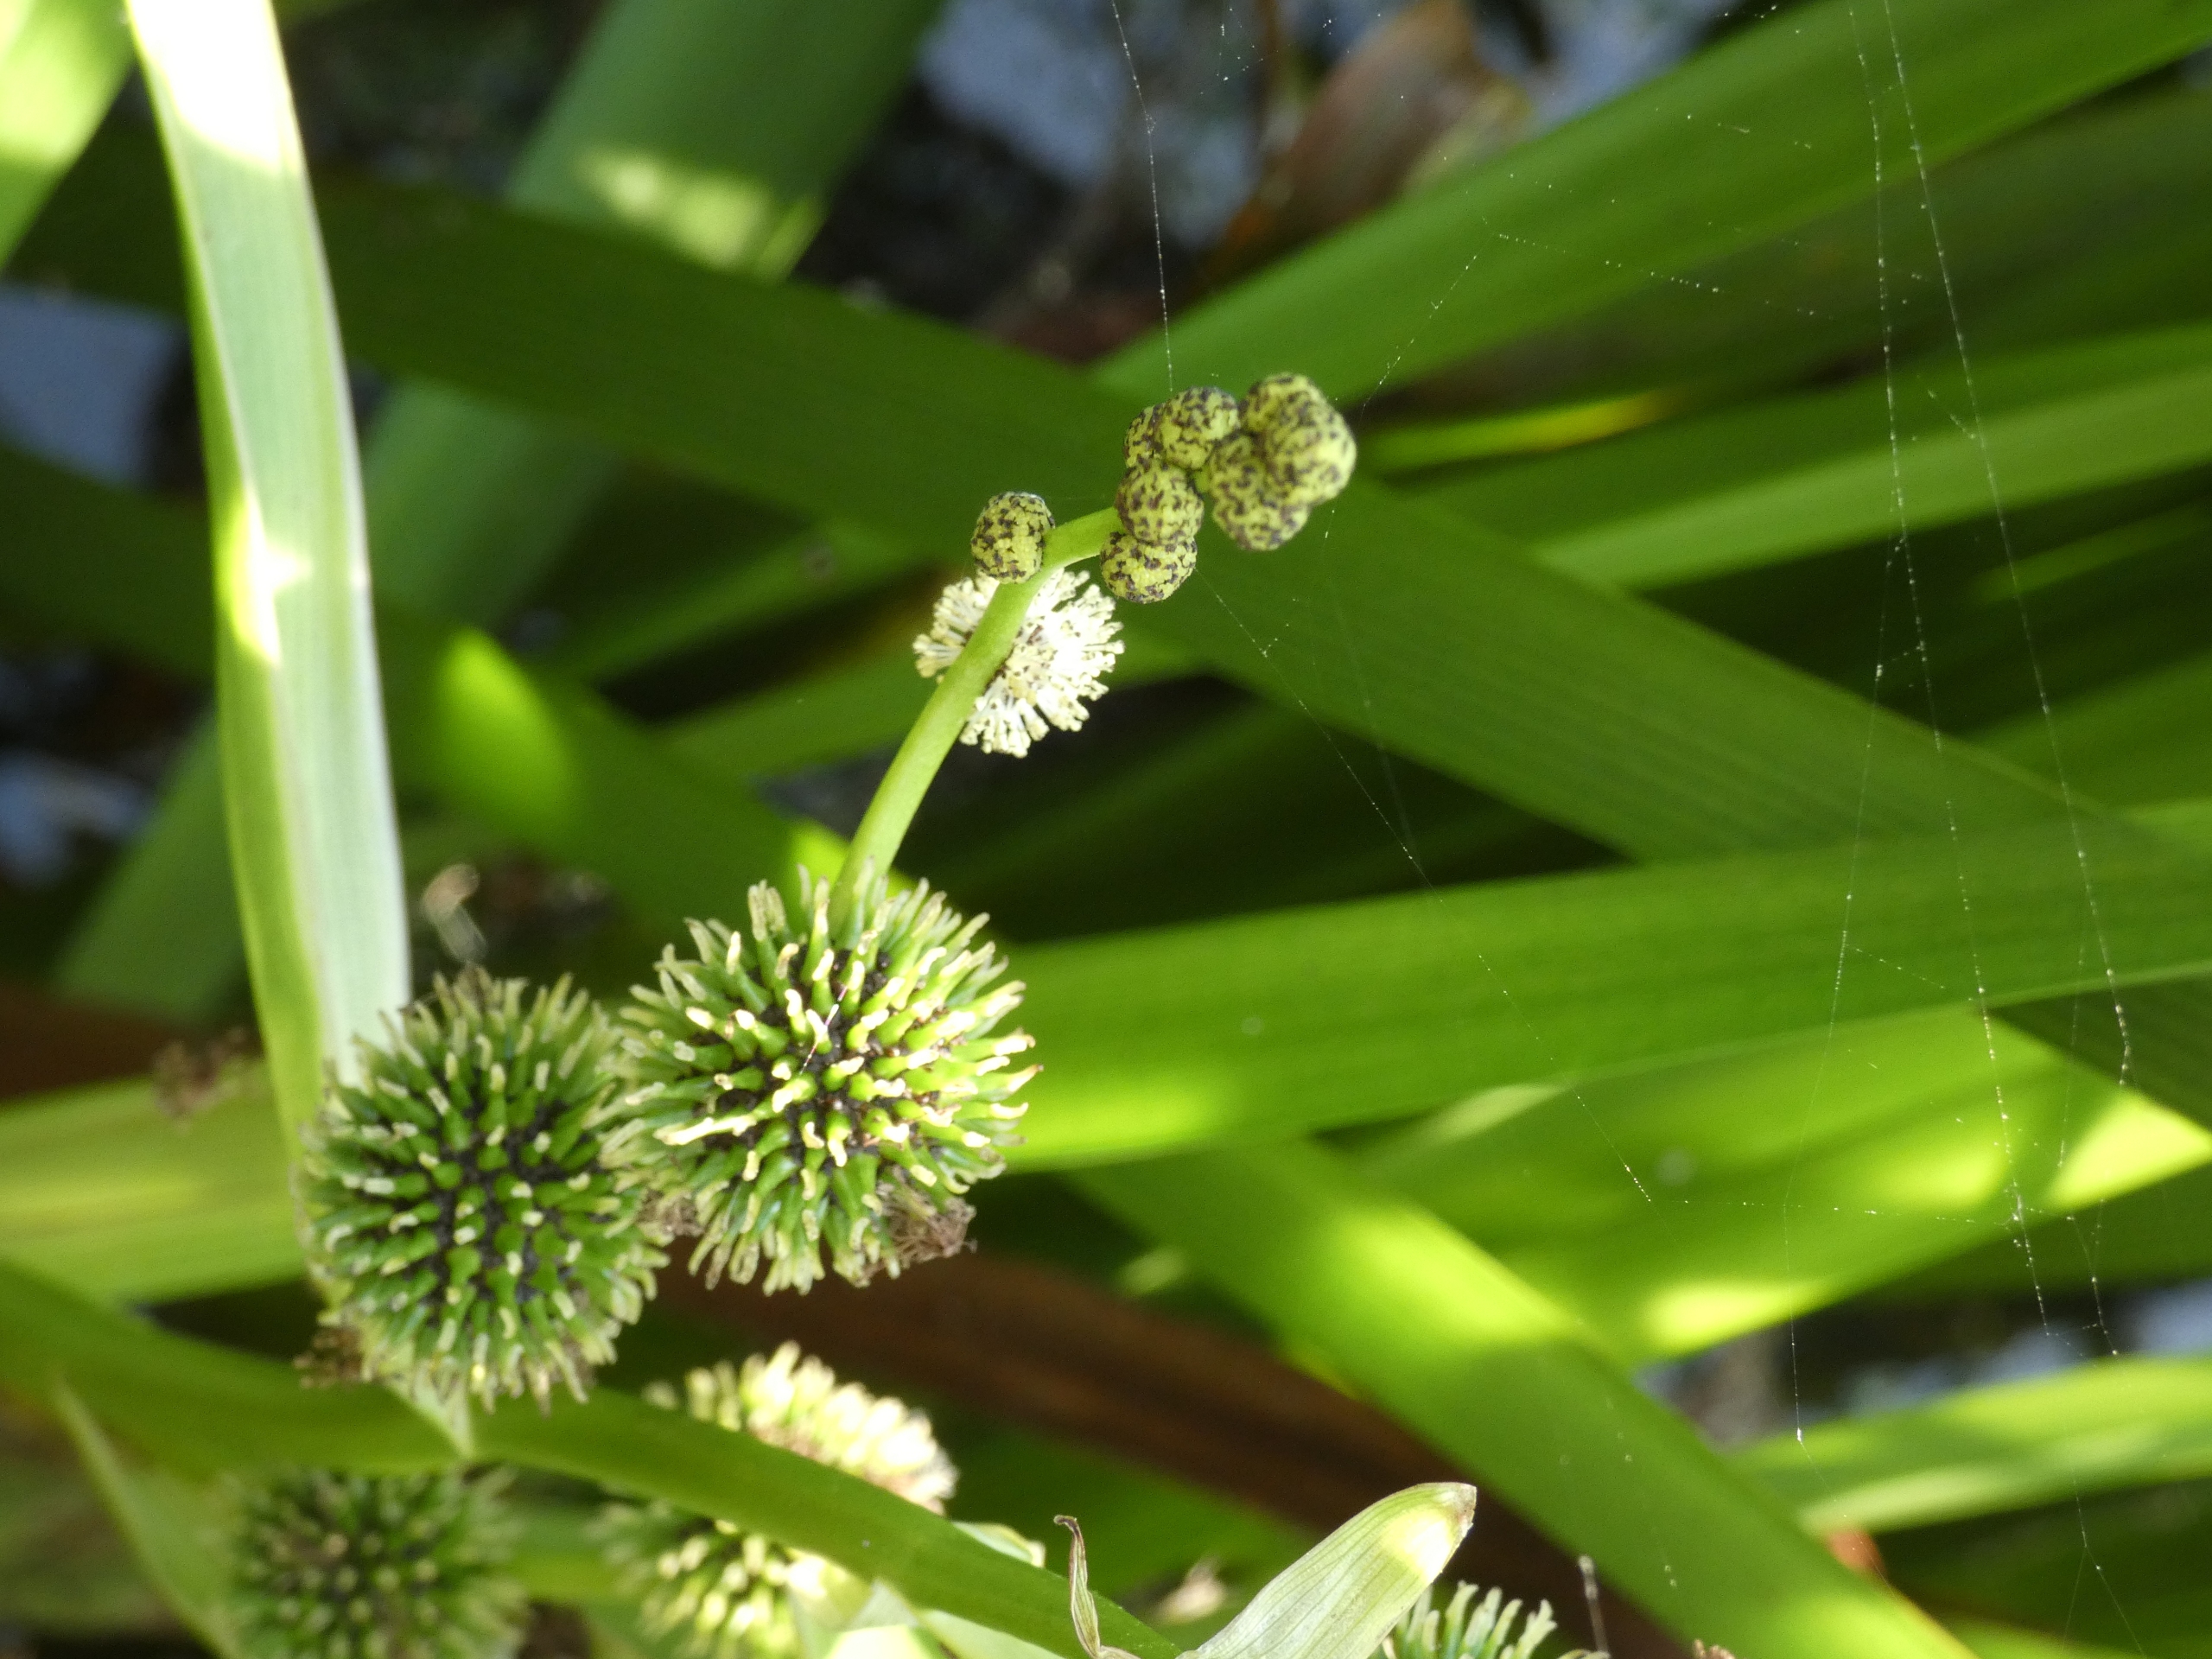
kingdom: Plantae
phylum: Tracheophyta
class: Liliopsida
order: Poales
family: Typhaceae
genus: Sparganium
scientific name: Sparganium erectum
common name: Grenet pindsvineknop
